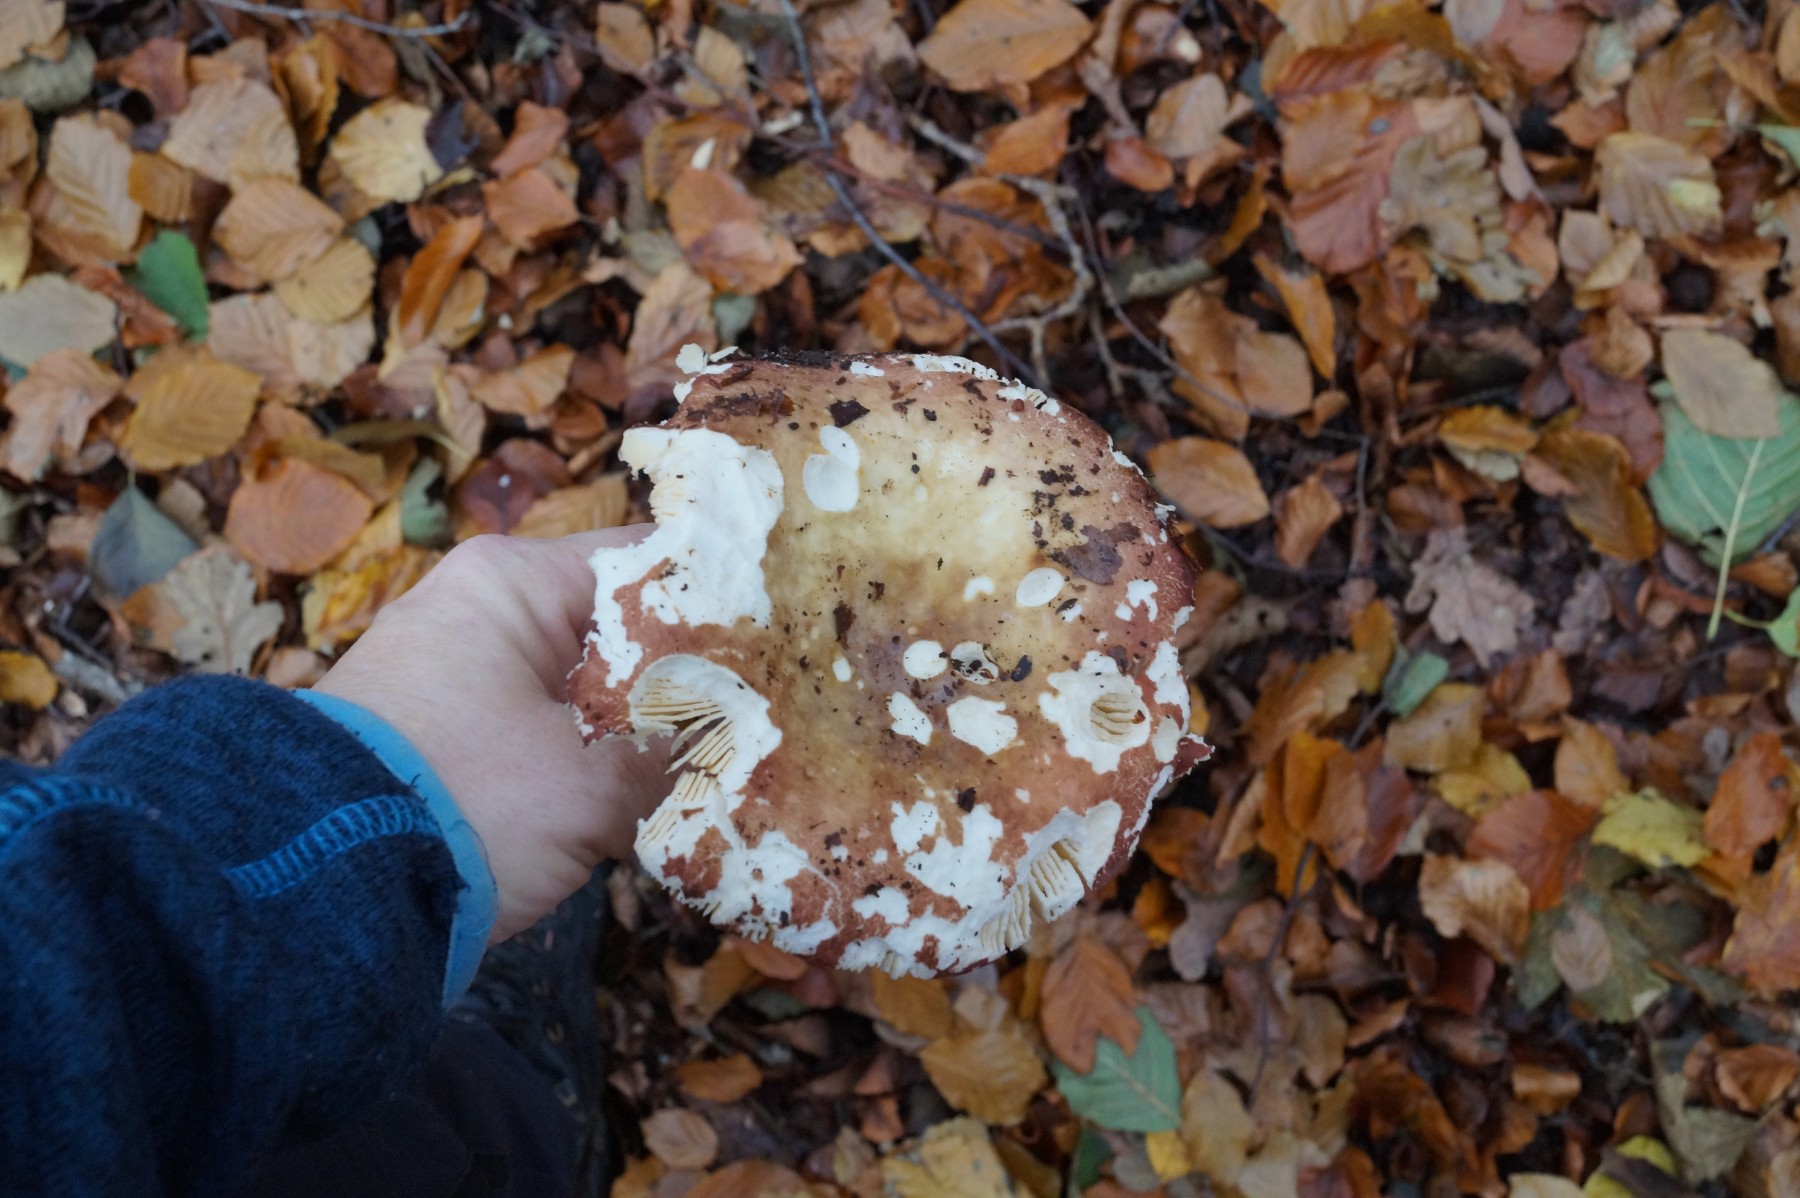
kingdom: Fungi
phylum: Basidiomycota
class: Agaricomycetes
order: Russulales
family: Russulaceae
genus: Russula
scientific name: Russula
